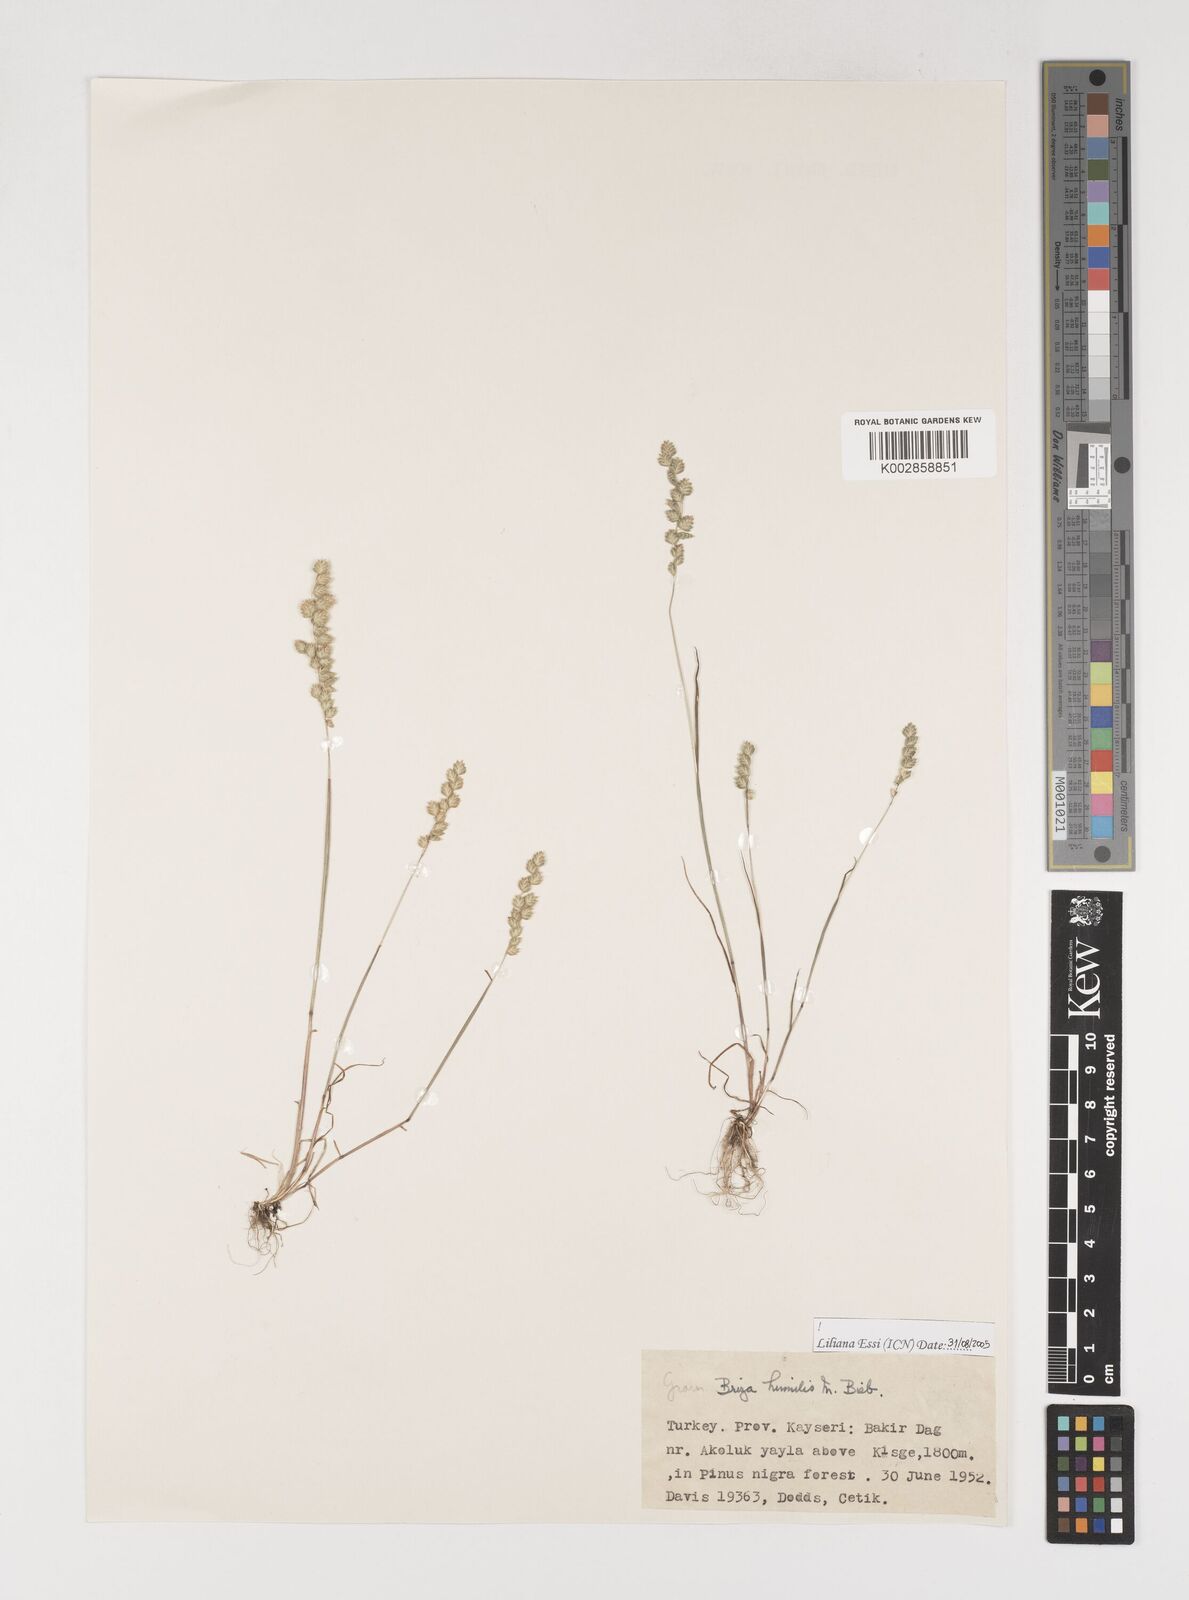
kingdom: Plantae
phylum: Tracheophyta
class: Liliopsida
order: Poales
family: Poaceae
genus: Briza
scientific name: Briza humilis
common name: Spiked quaking grass
